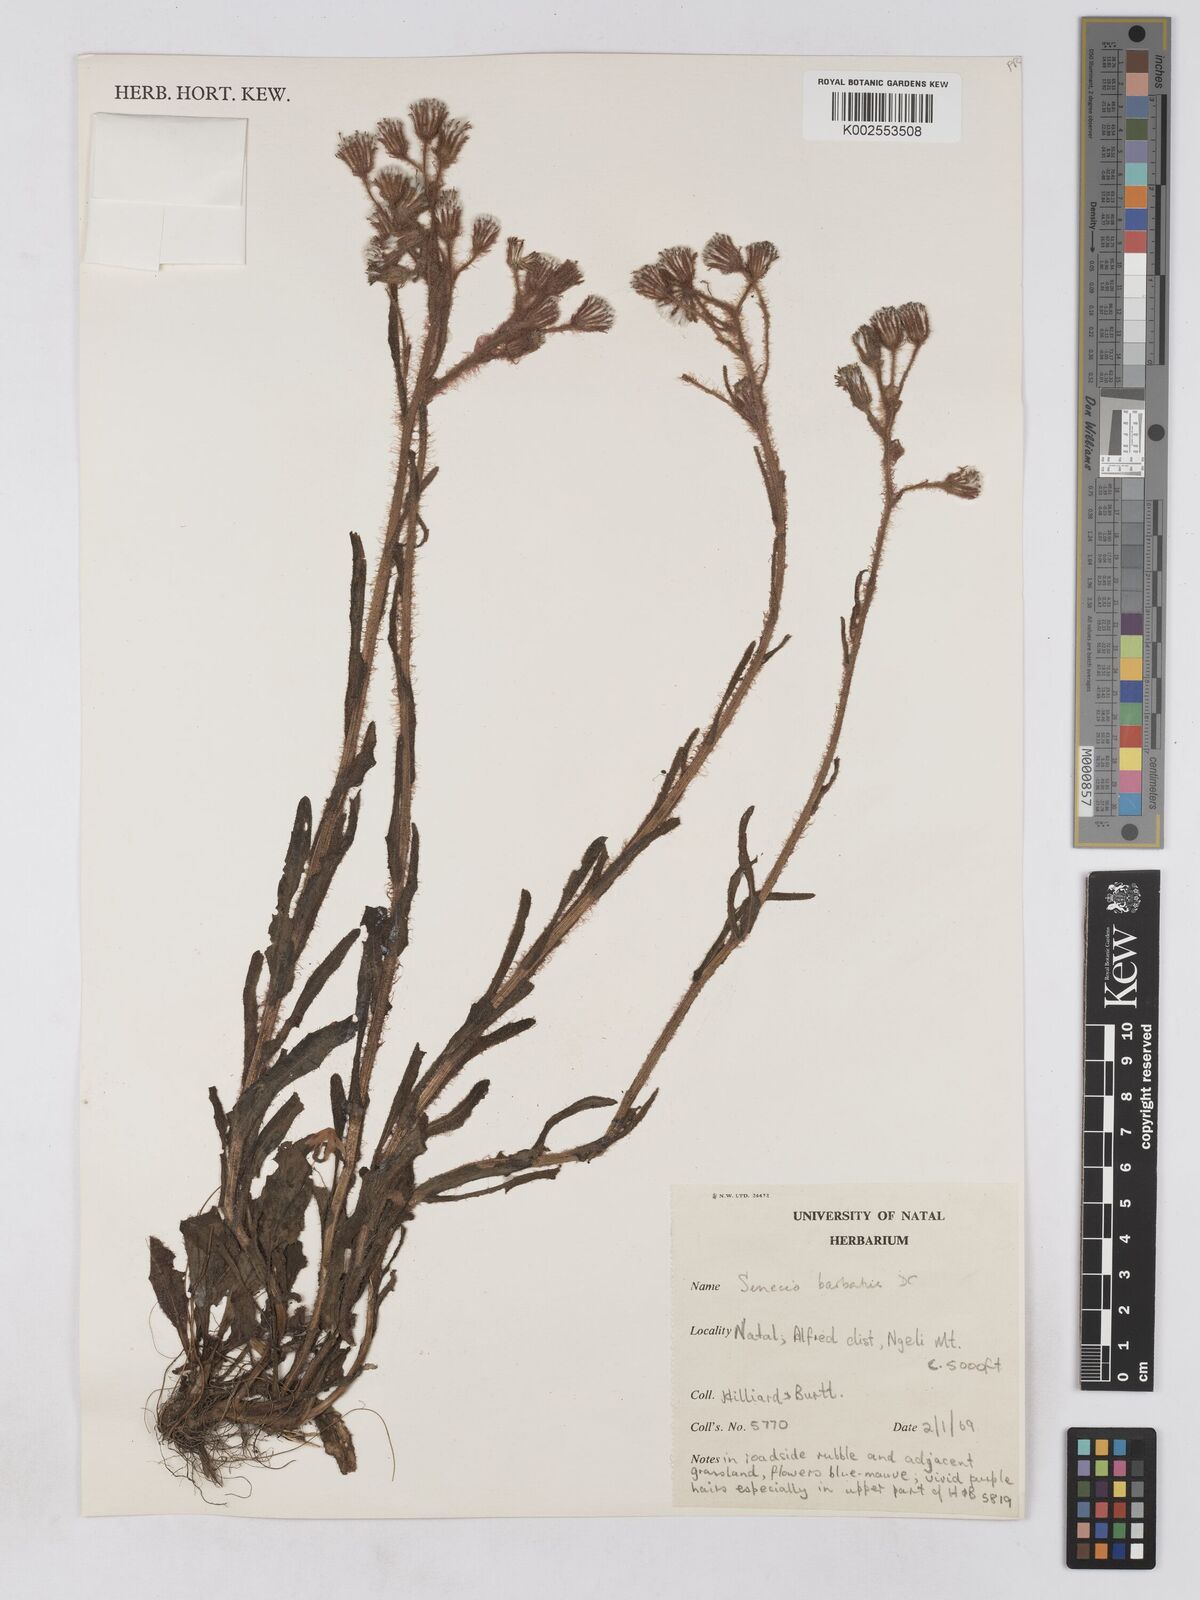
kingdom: Plantae
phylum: Tracheophyta
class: Magnoliopsida
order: Asterales
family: Asteraceae
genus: Senecio
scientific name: Senecio barbatus
